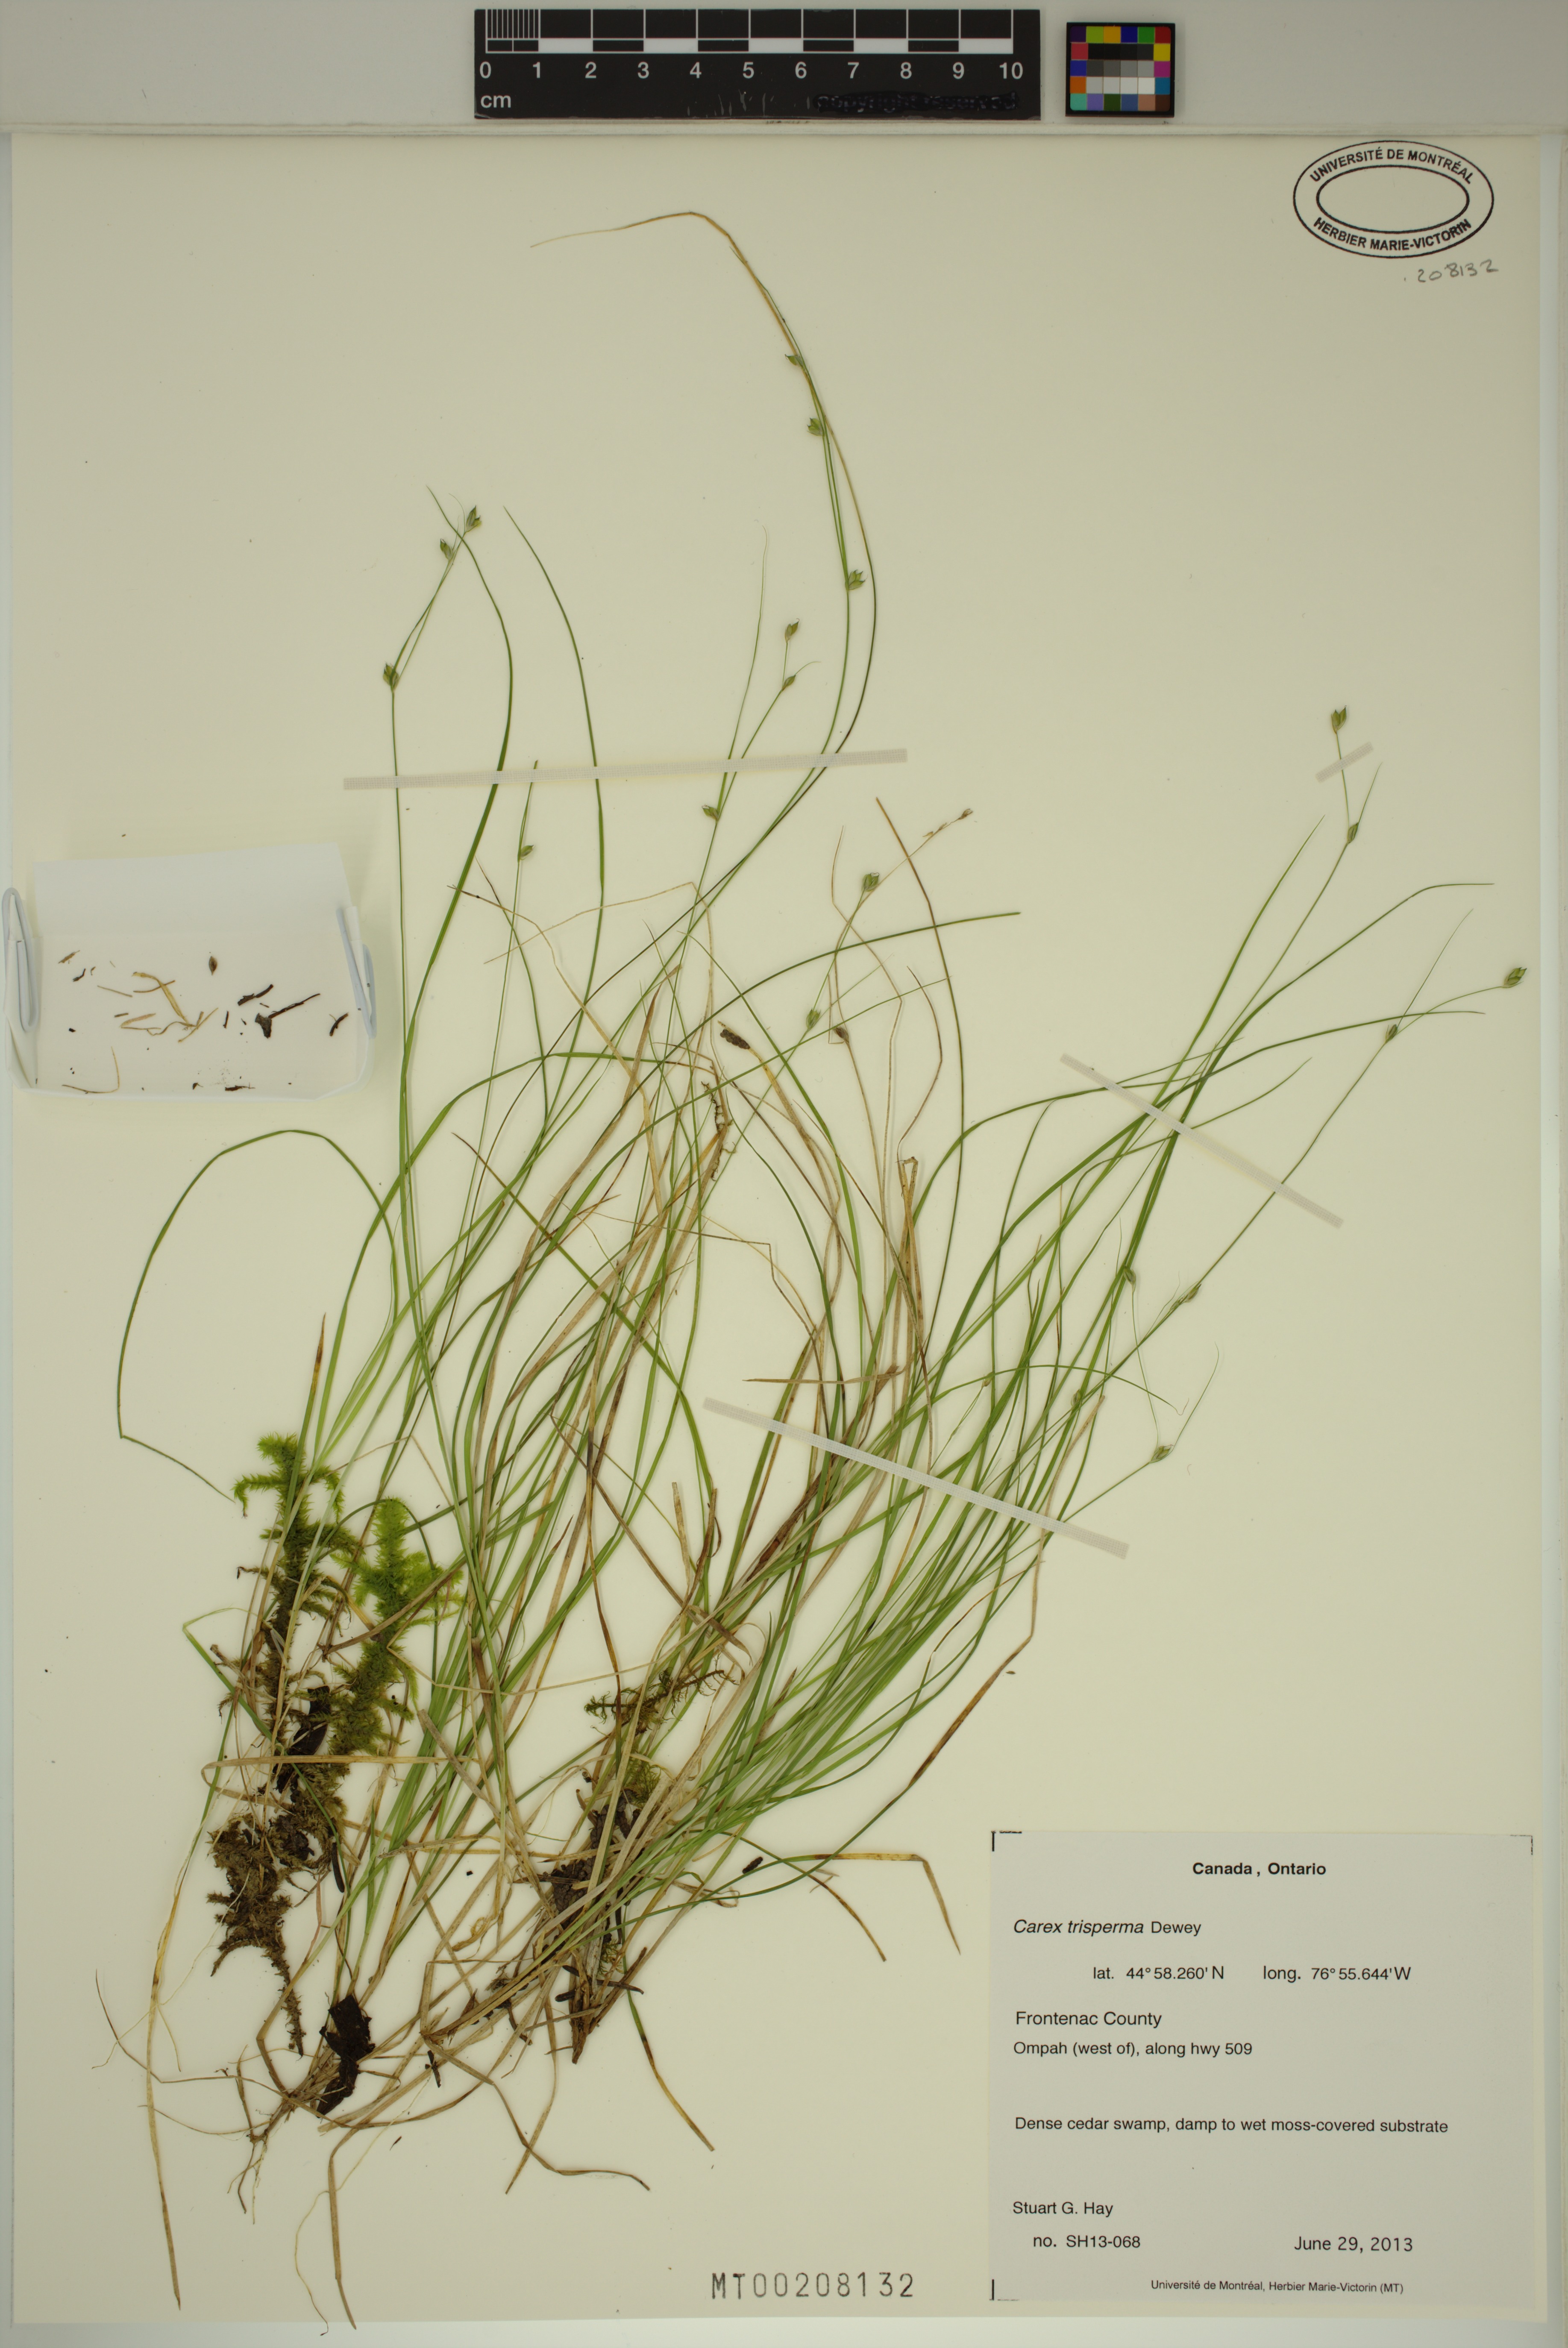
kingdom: Plantae
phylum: Tracheophyta
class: Liliopsida
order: Poales
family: Cyperaceae
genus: Carex
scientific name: Carex trisperma
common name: Three-seeded sedge
